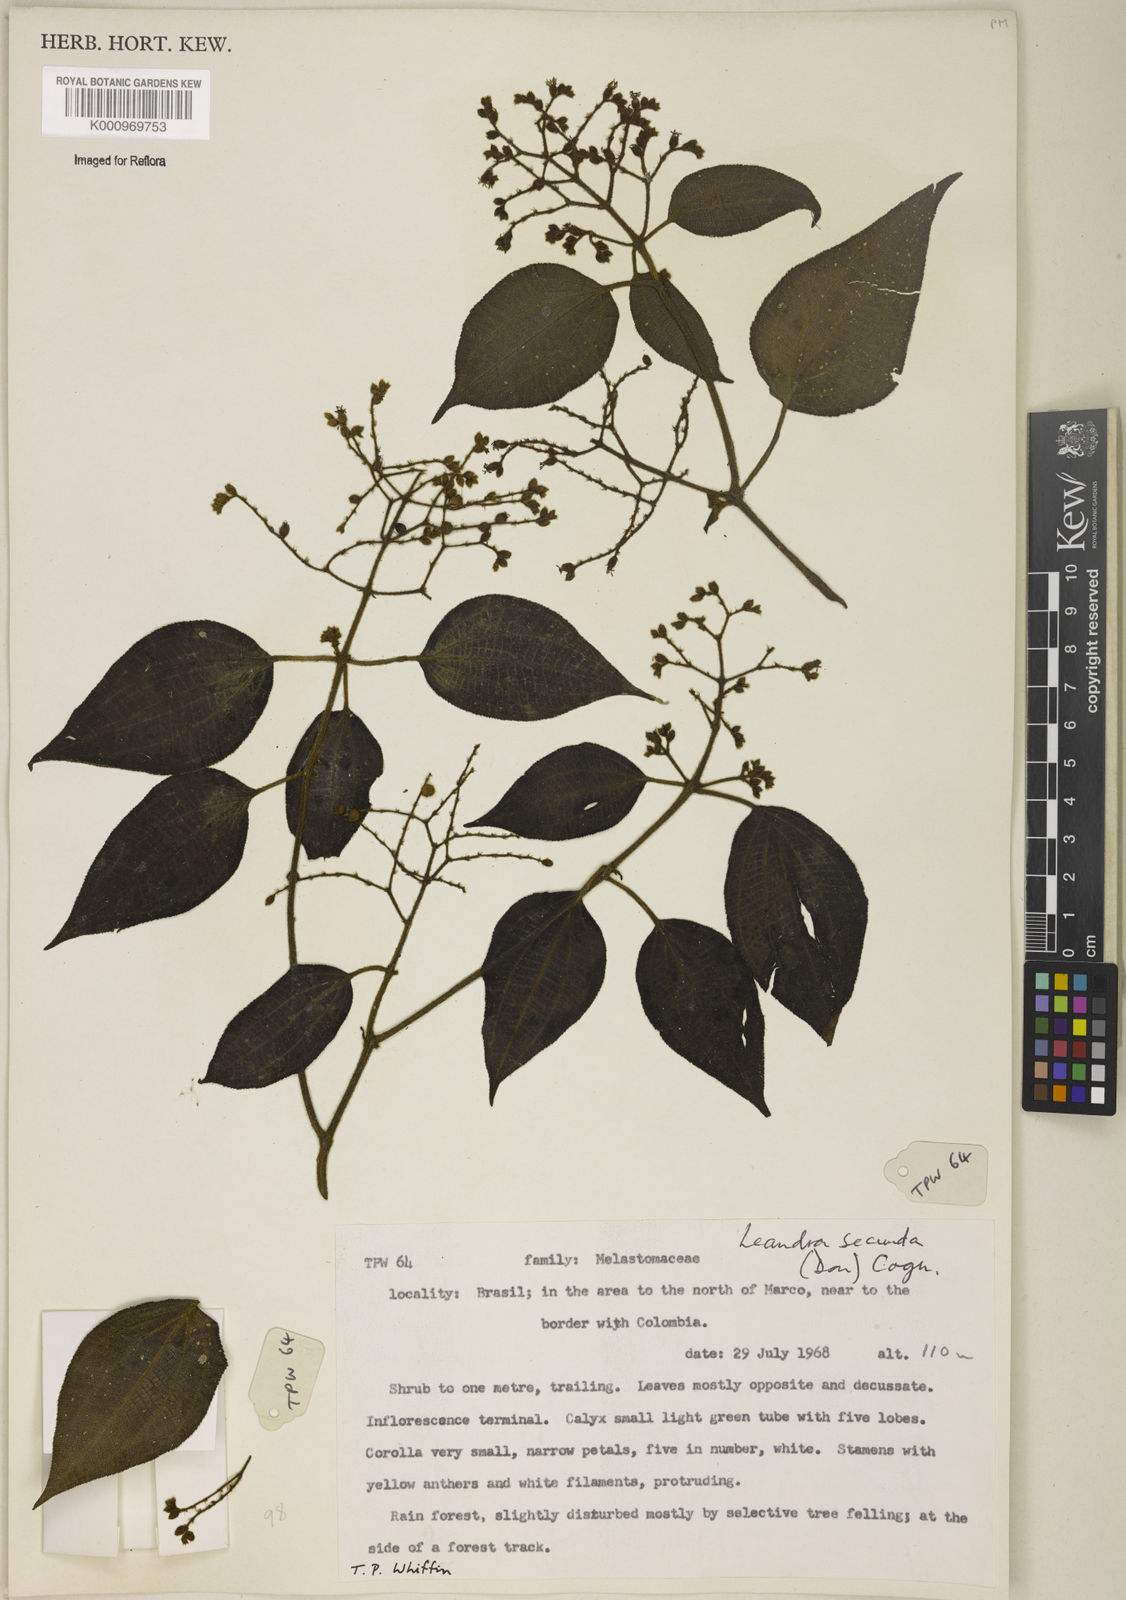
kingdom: Plantae
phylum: Tracheophyta
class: Magnoliopsida
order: Myrtales
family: Melastomataceae
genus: Miconia
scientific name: Miconia neosecunda
